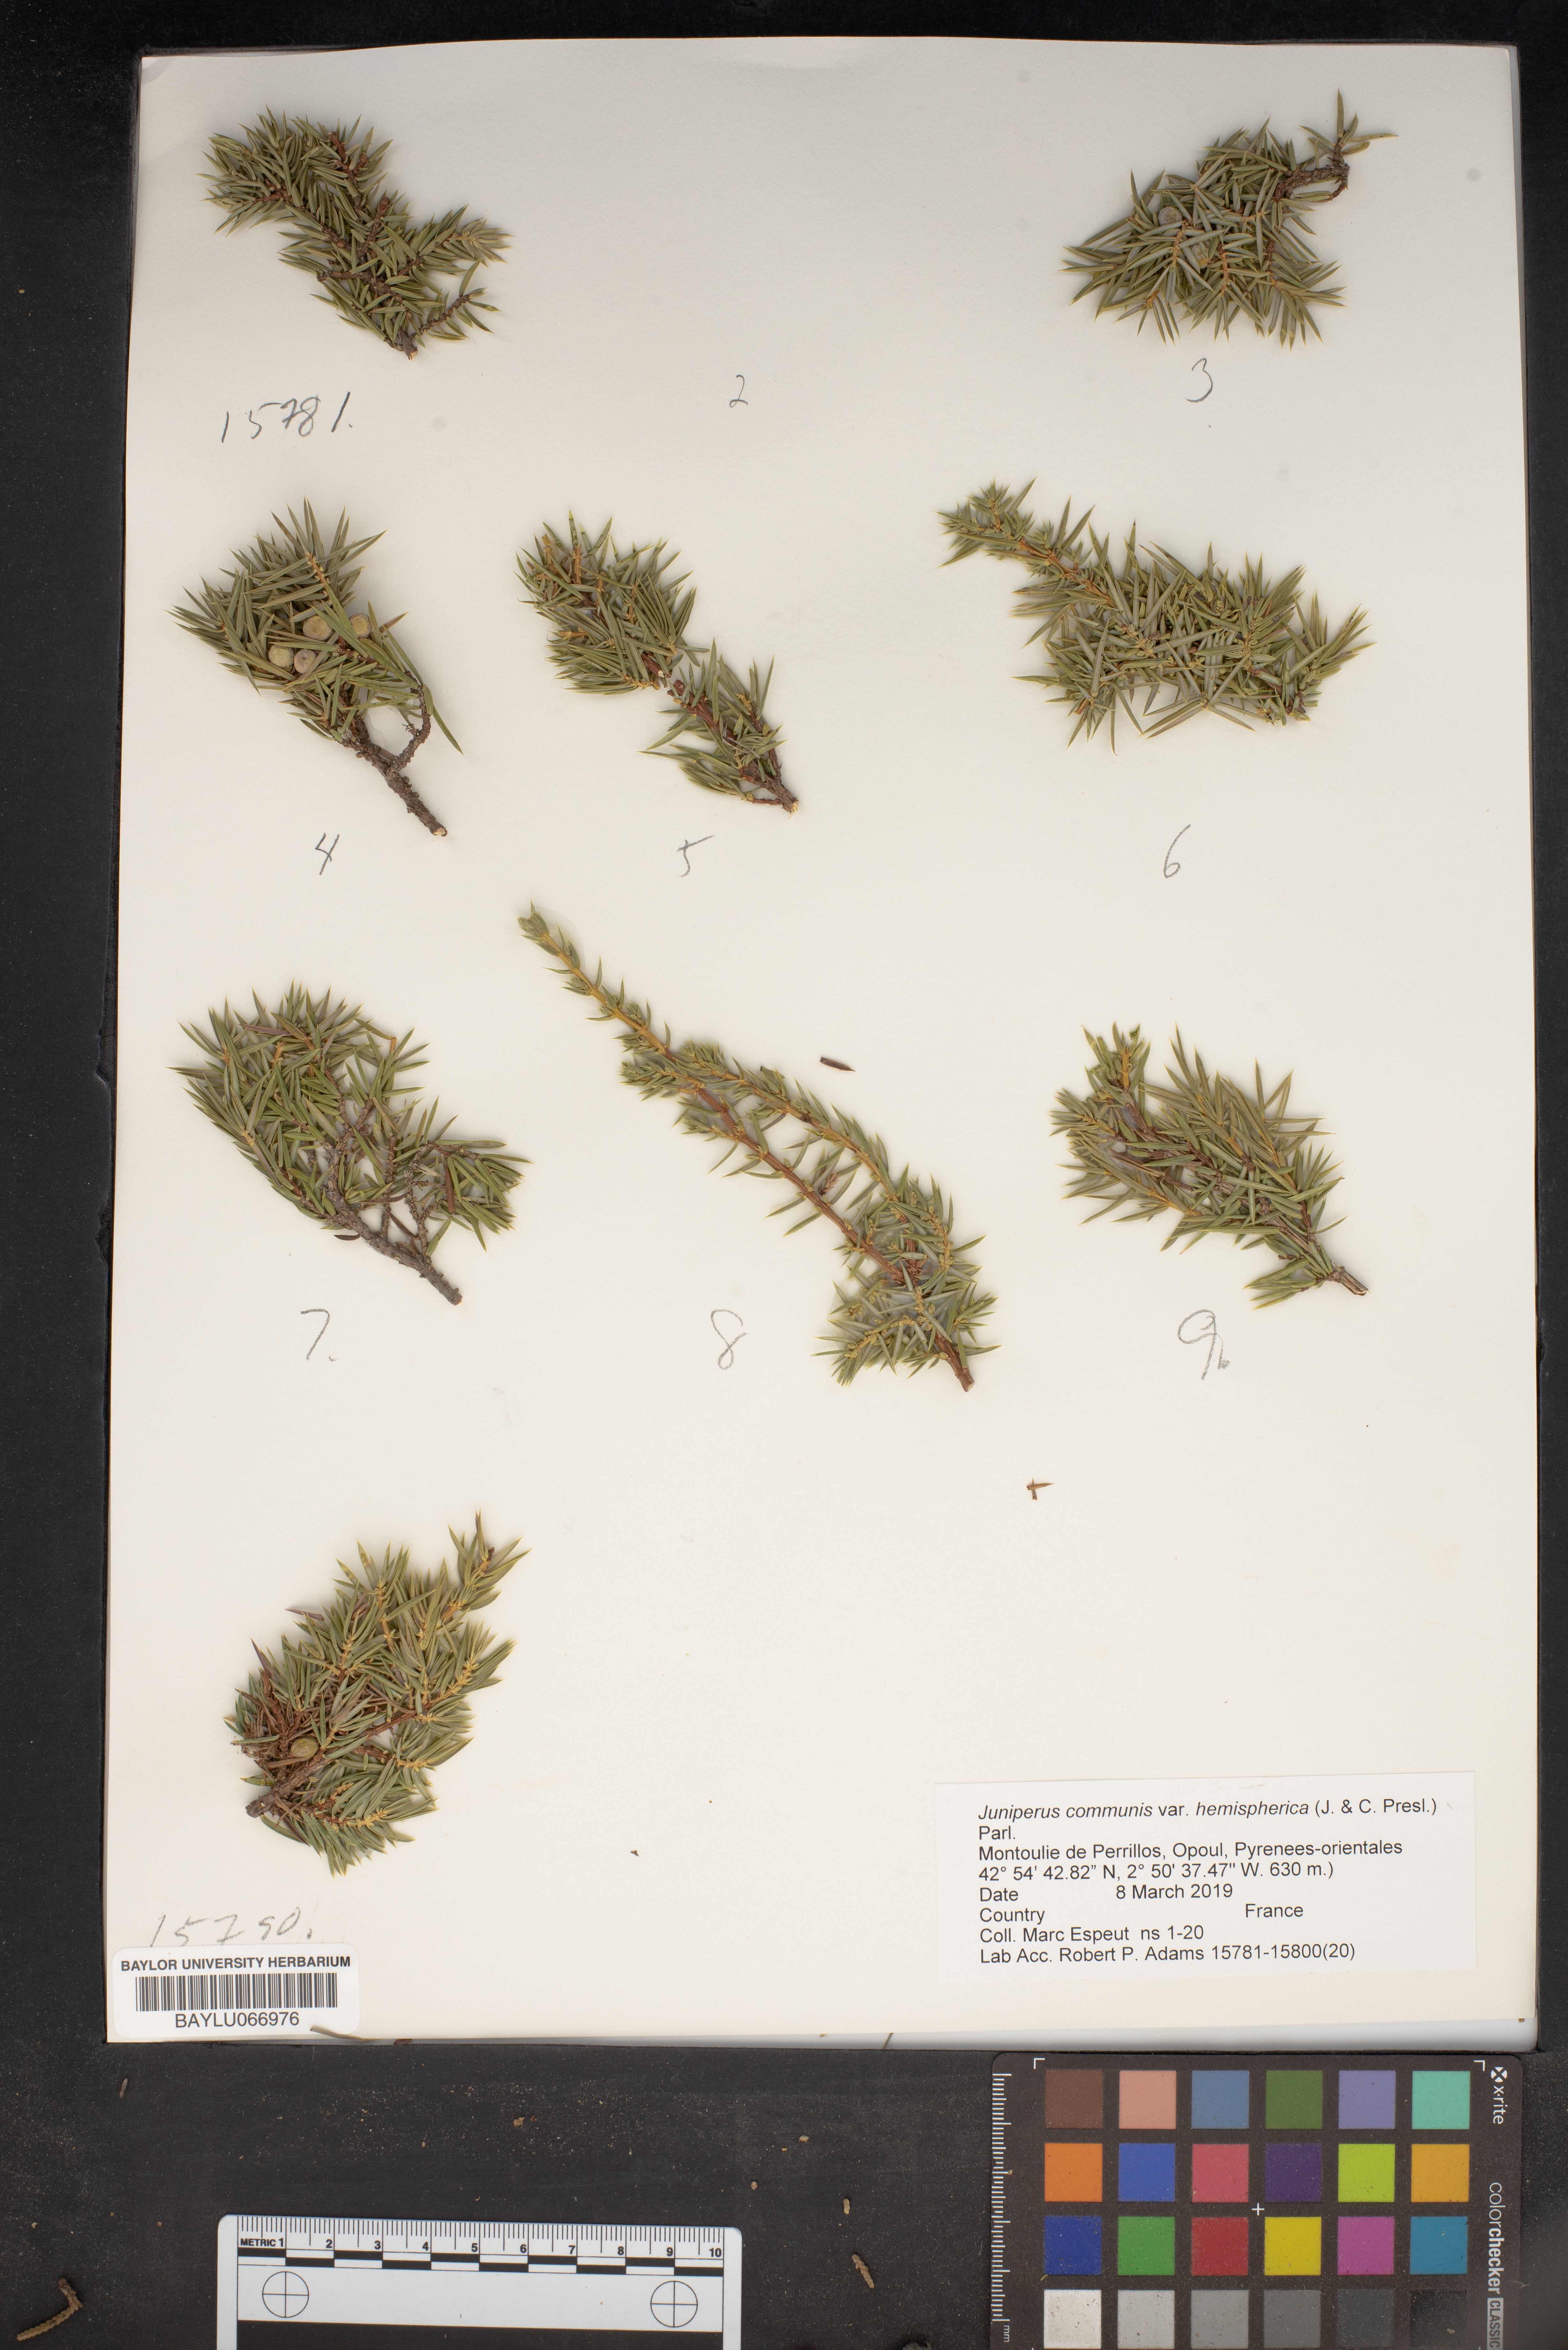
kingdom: Plantae
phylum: Tracheophyta
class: Pinopsida
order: Pinales
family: Cupressaceae
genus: Juniperus
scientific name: Juniperus communis
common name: Common juniper
